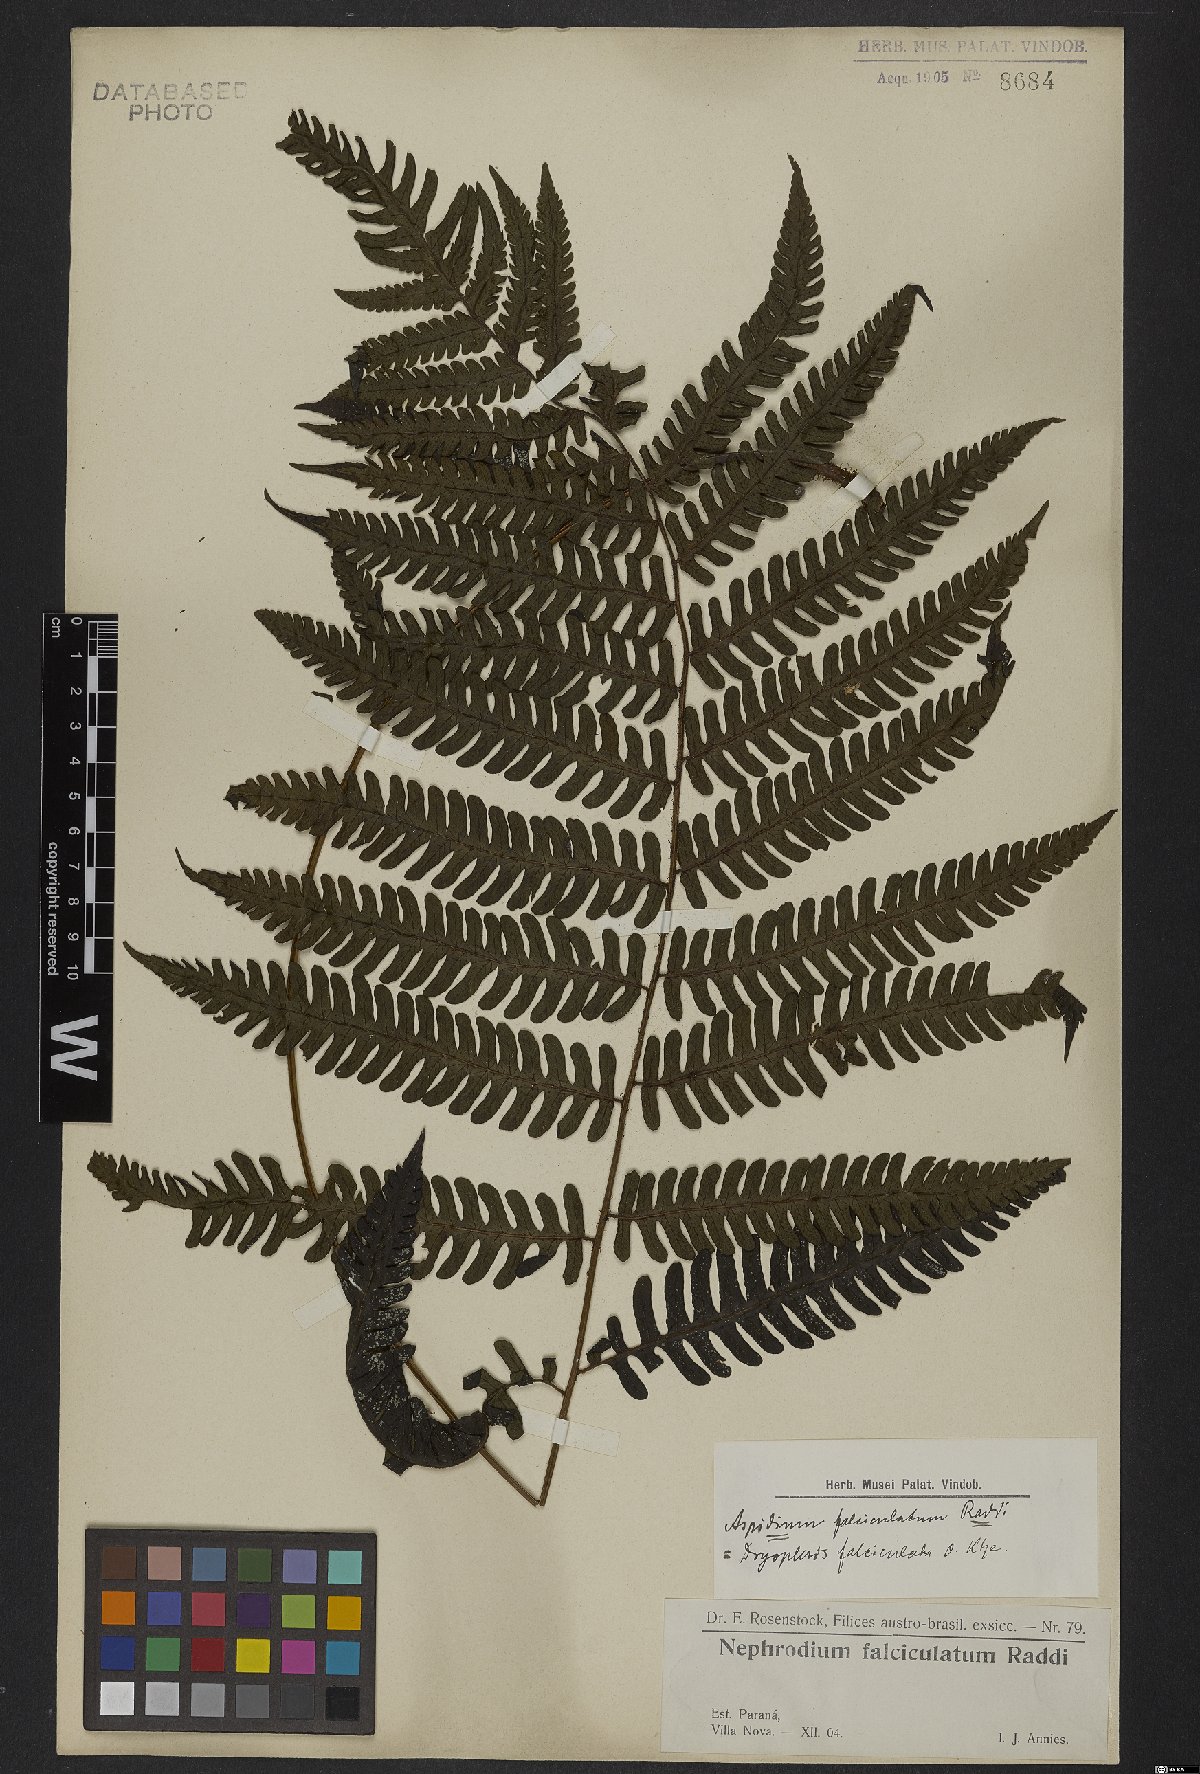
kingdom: Plantae
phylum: Tracheophyta
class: Polypodiopsida
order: Polypodiales
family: Dryopteridaceae
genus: Ctenitis
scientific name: Ctenitis falciculata
